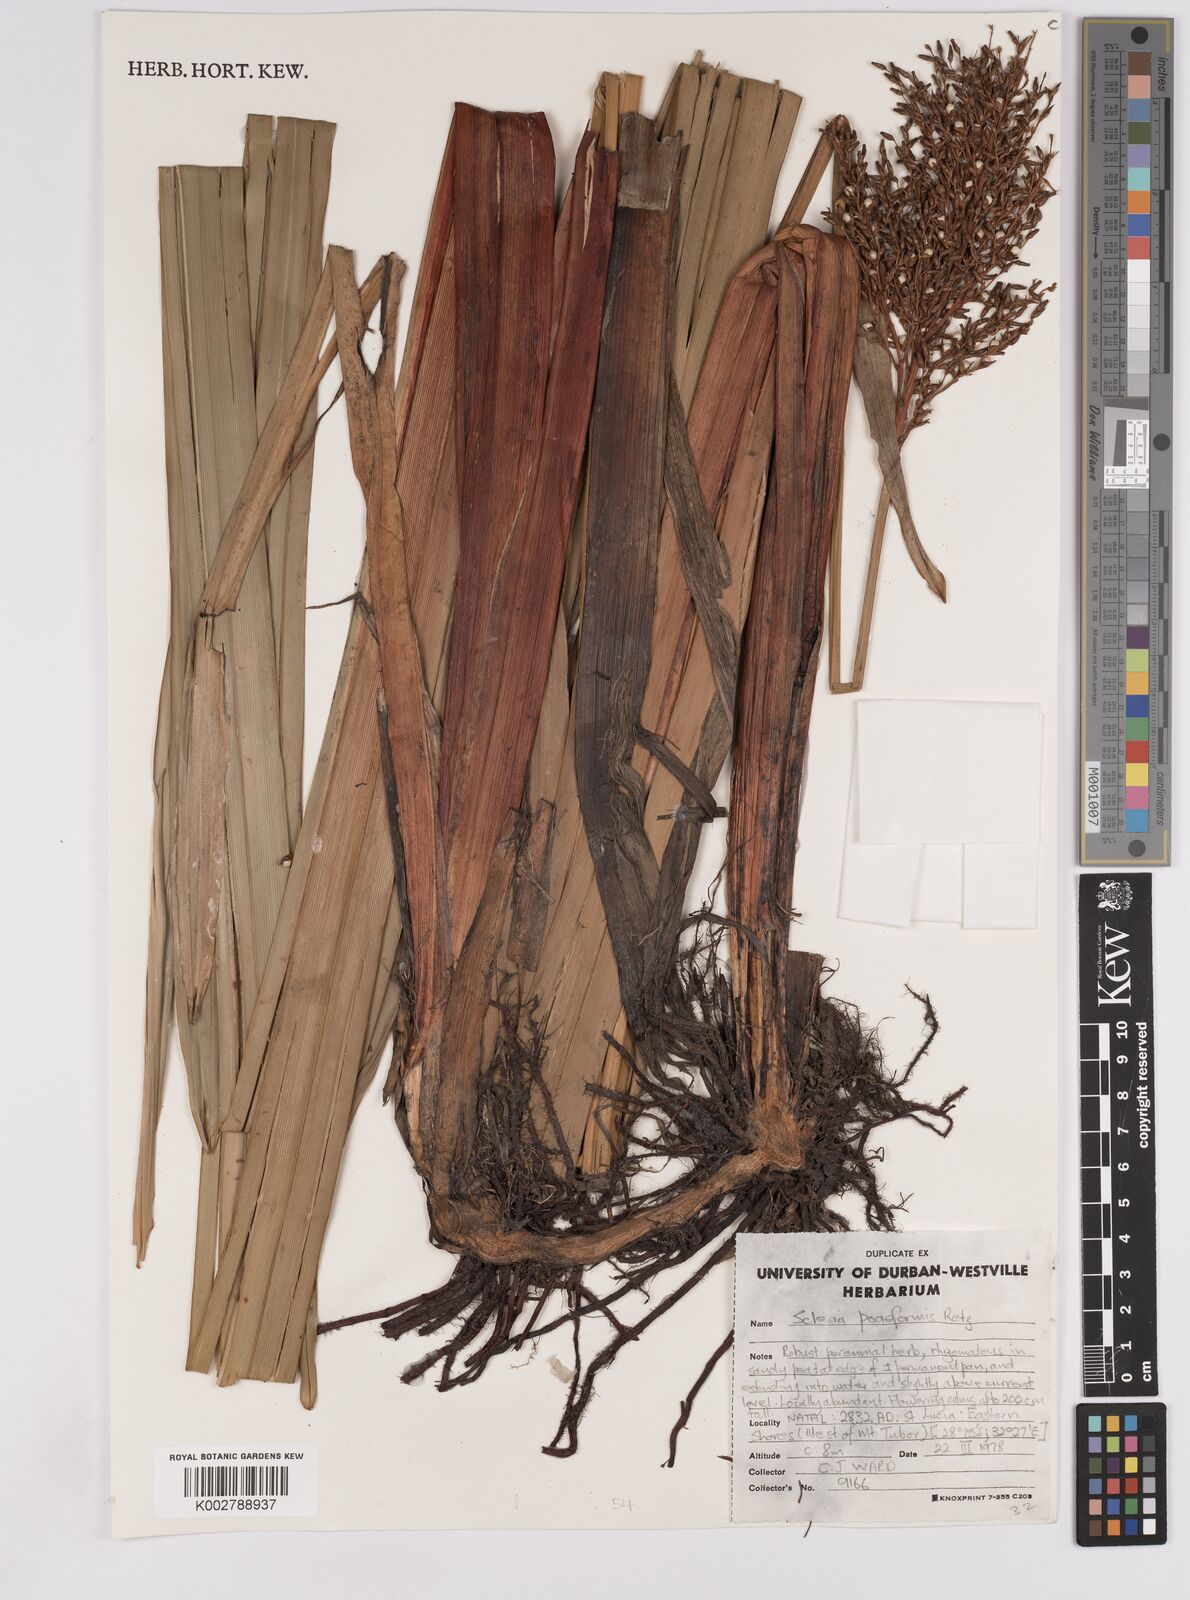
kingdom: Plantae
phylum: Tracheophyta
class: Liliopsida
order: Poales
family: Cyperaceae
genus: Scleria
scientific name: Scleria poiformis
